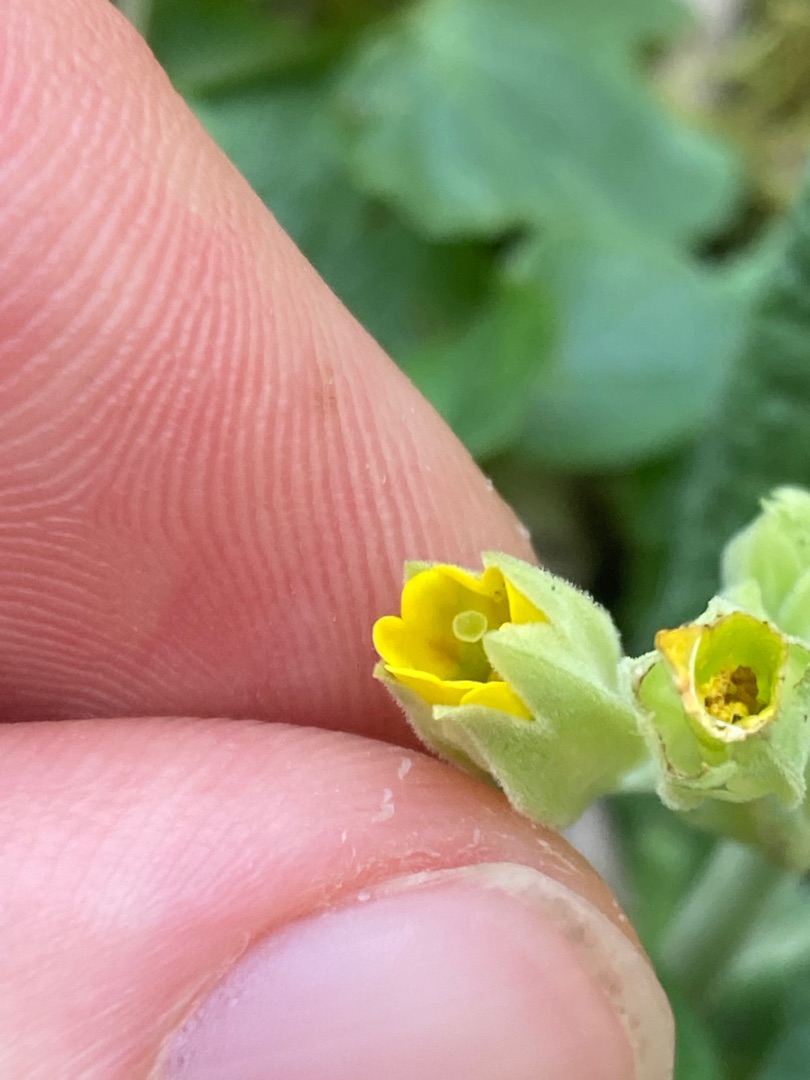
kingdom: Plantae
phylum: Tracheophyta
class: Magnoliopsida
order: Ericales
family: Primulaceae
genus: Primula
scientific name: Primula veris
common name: Hulkravet kodriver
